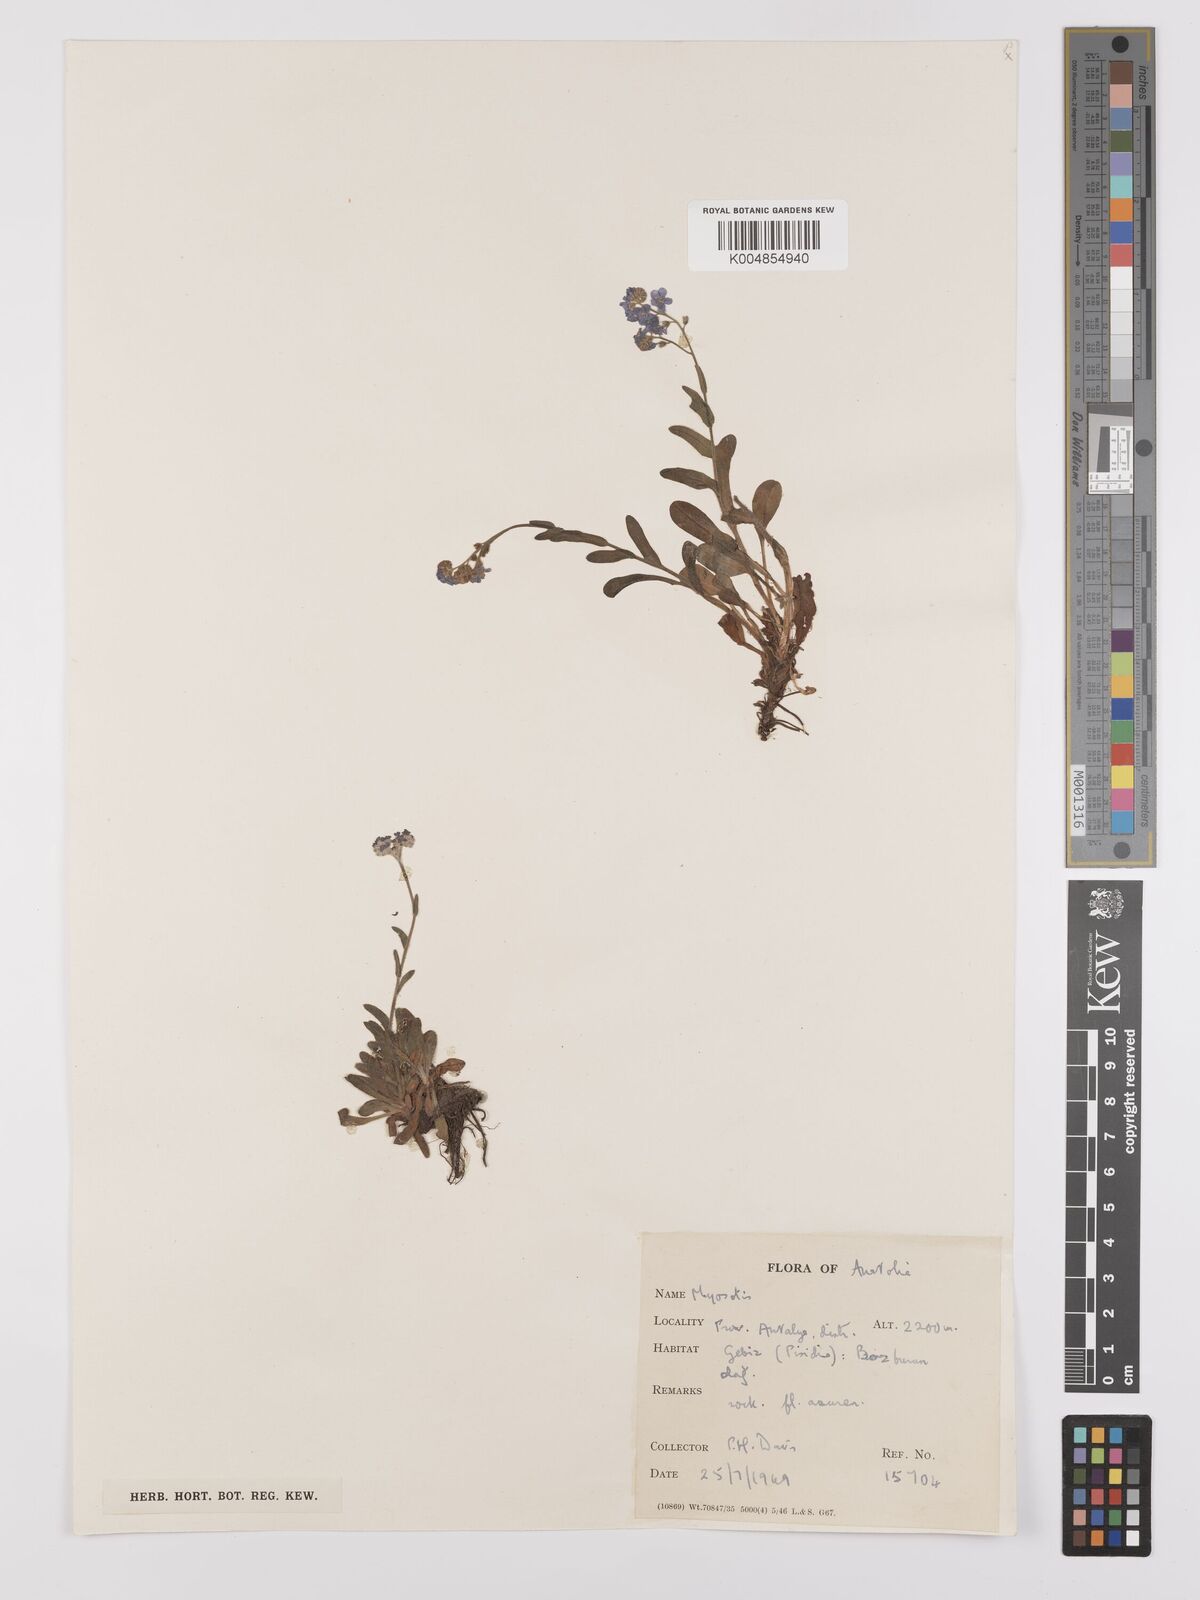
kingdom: Plantae
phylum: Tracheophyta
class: Magnoliopsida
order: Boraginales
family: Boraginaceae
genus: Myosotis
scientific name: Myosotis
